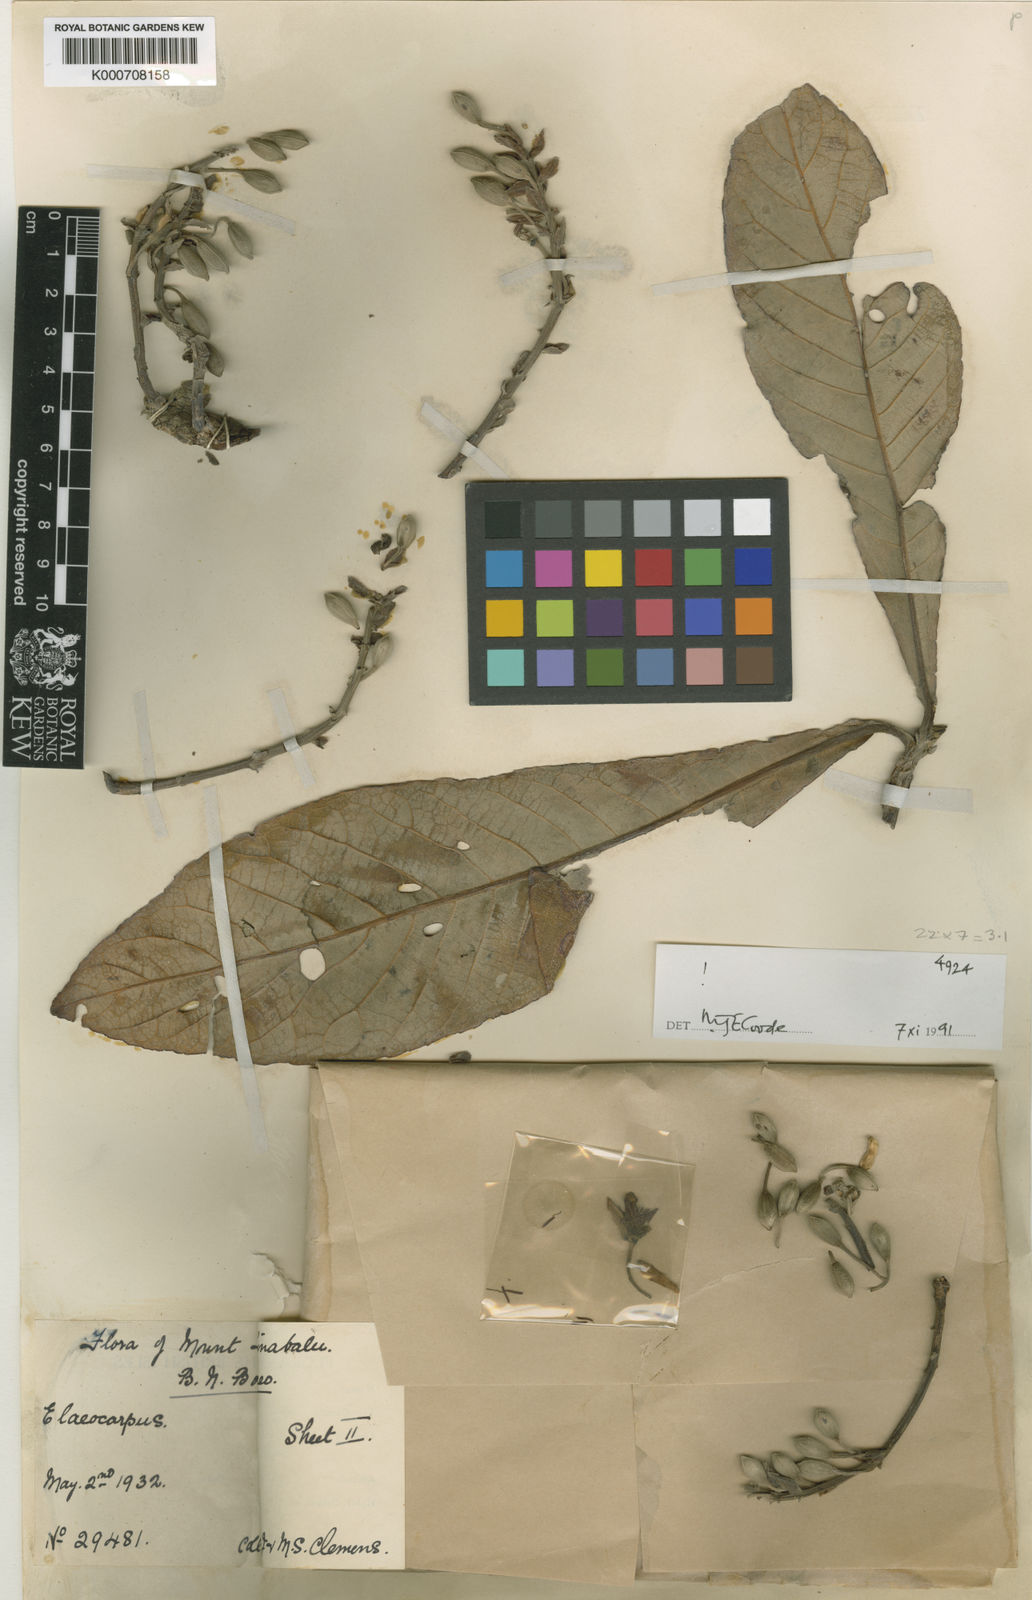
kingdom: Plantae
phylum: Tracheophyta
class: Magnoliopsida
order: Oxalidales
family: Elaeocarpaceae
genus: Elaeocarpus
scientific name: Elaeocarpus gustaviifolius
